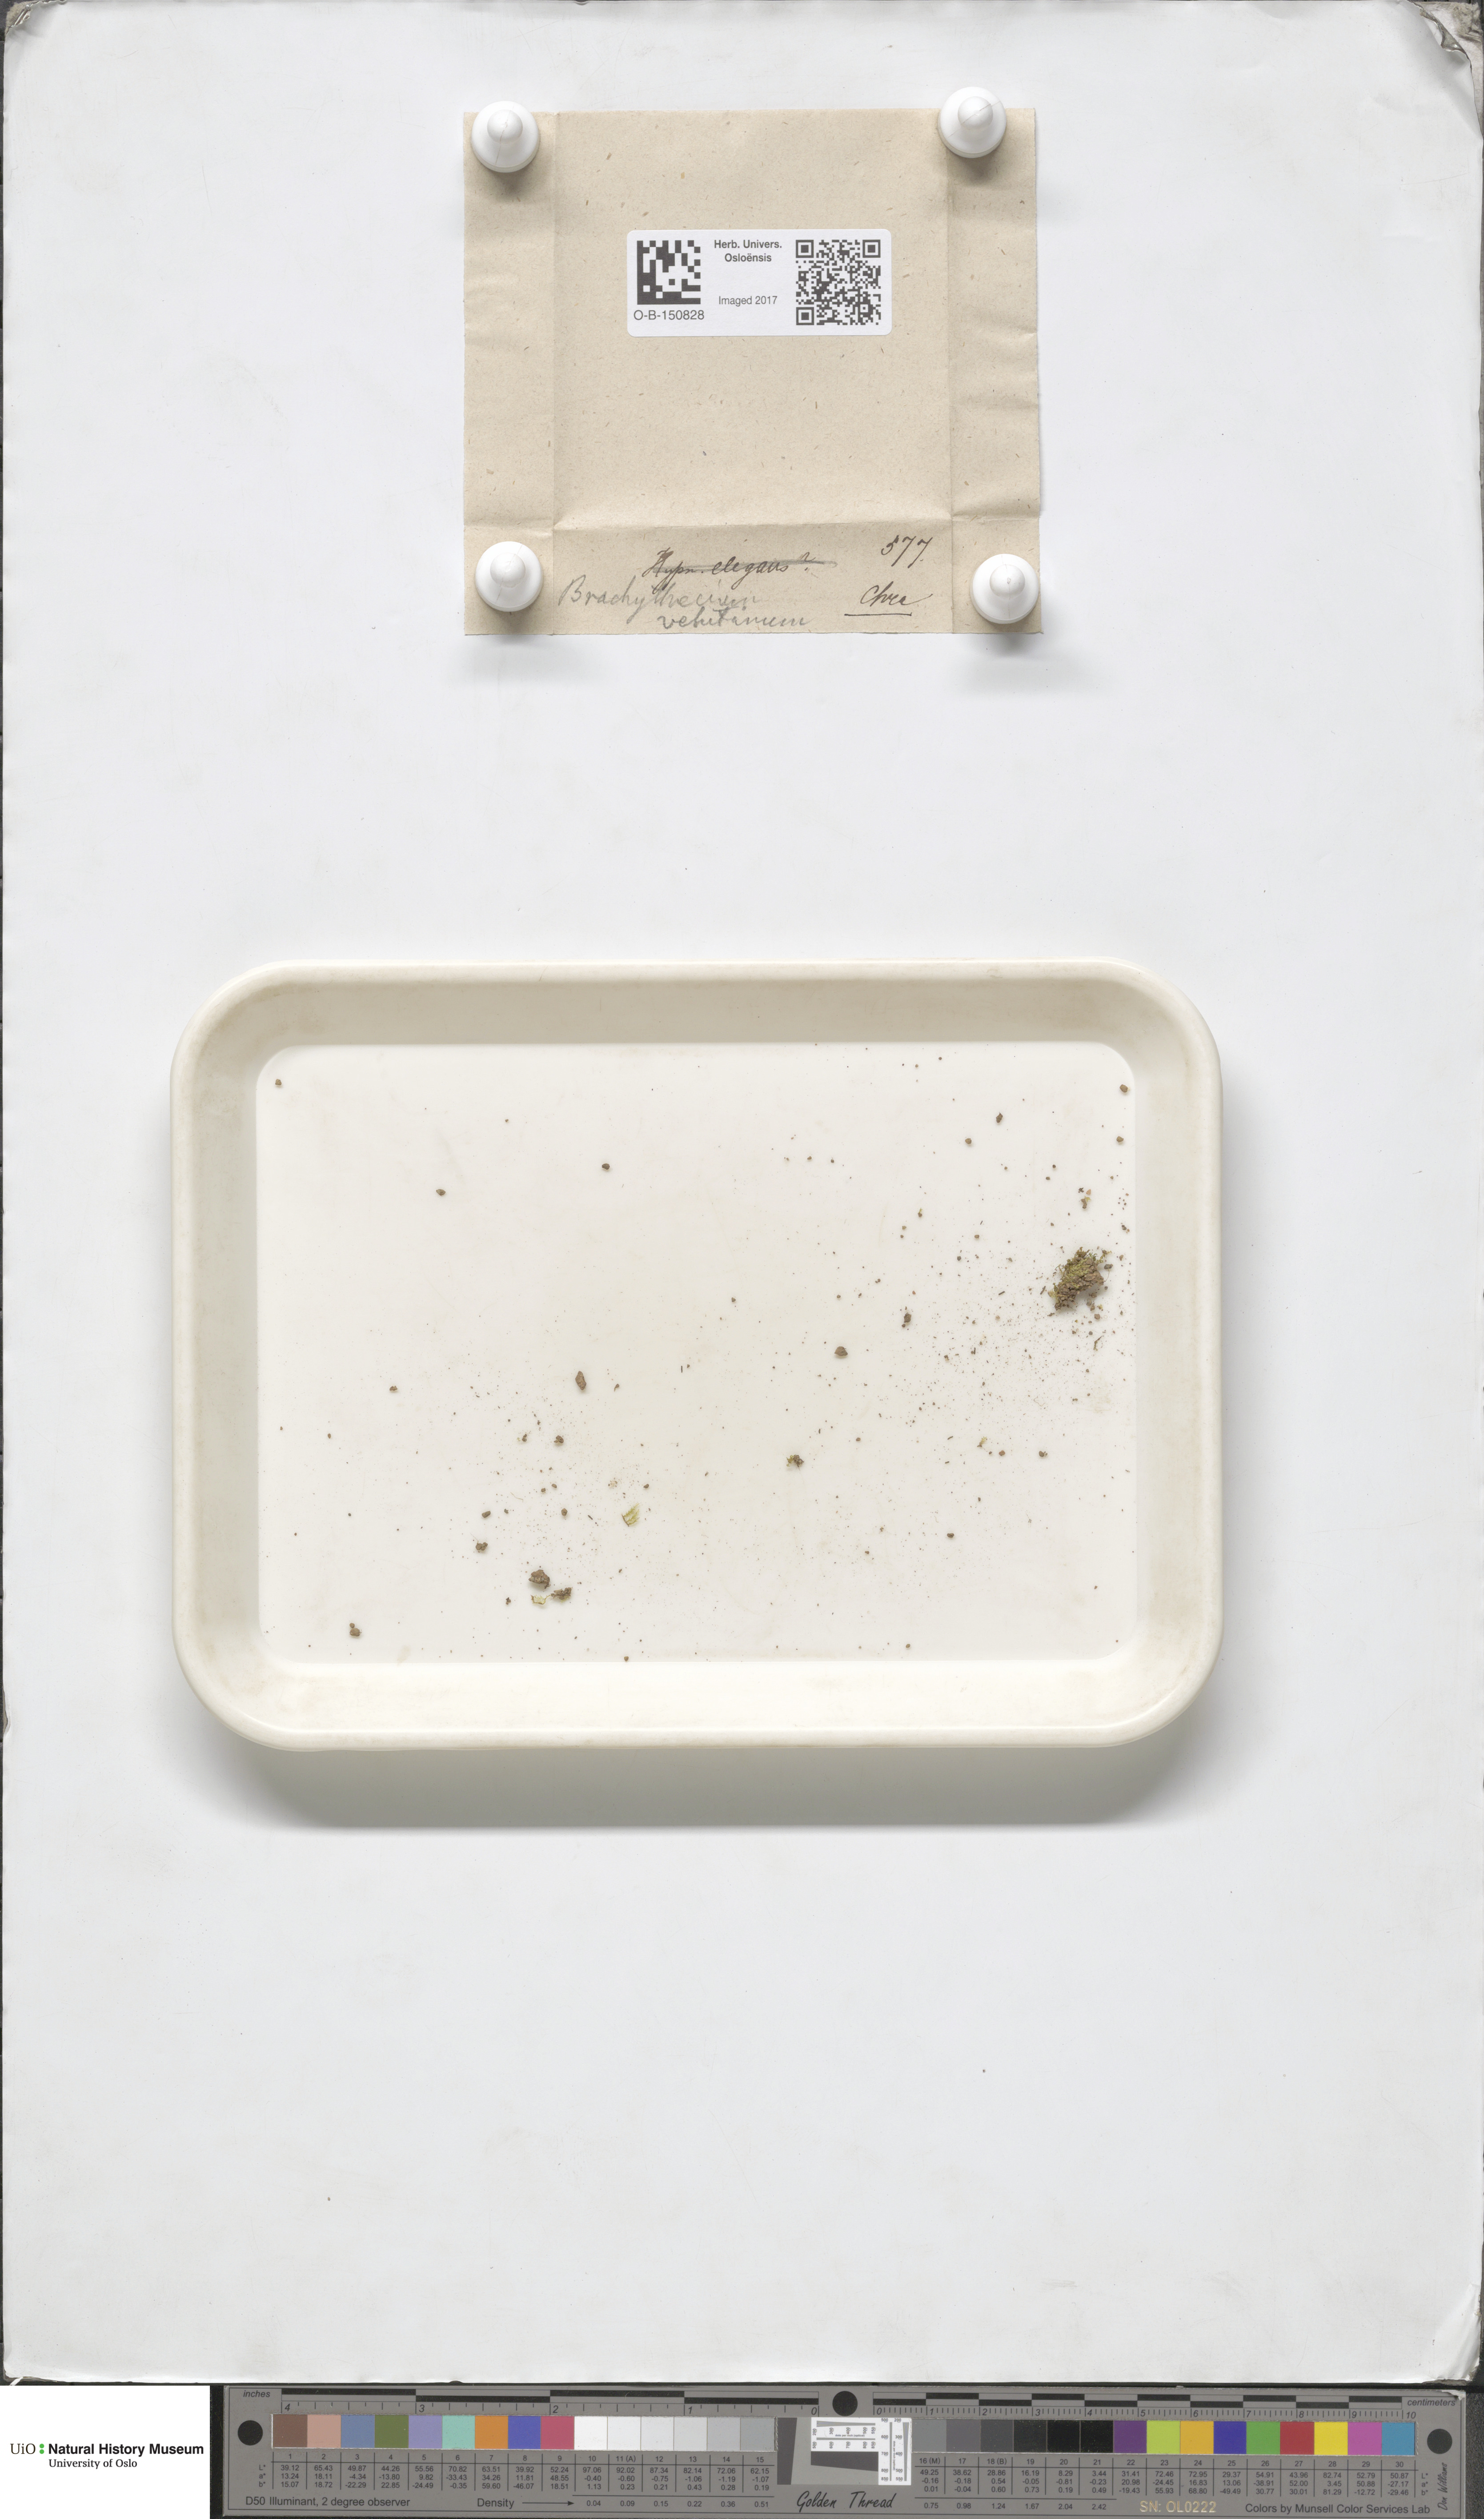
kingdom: Plantae
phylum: Bryophyta
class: Bryopsida
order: Hypnales
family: Brachytheciaceae
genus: Brachytheciastrum
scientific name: Brachytheciastrum velutinum
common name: Velvet feather-moss
